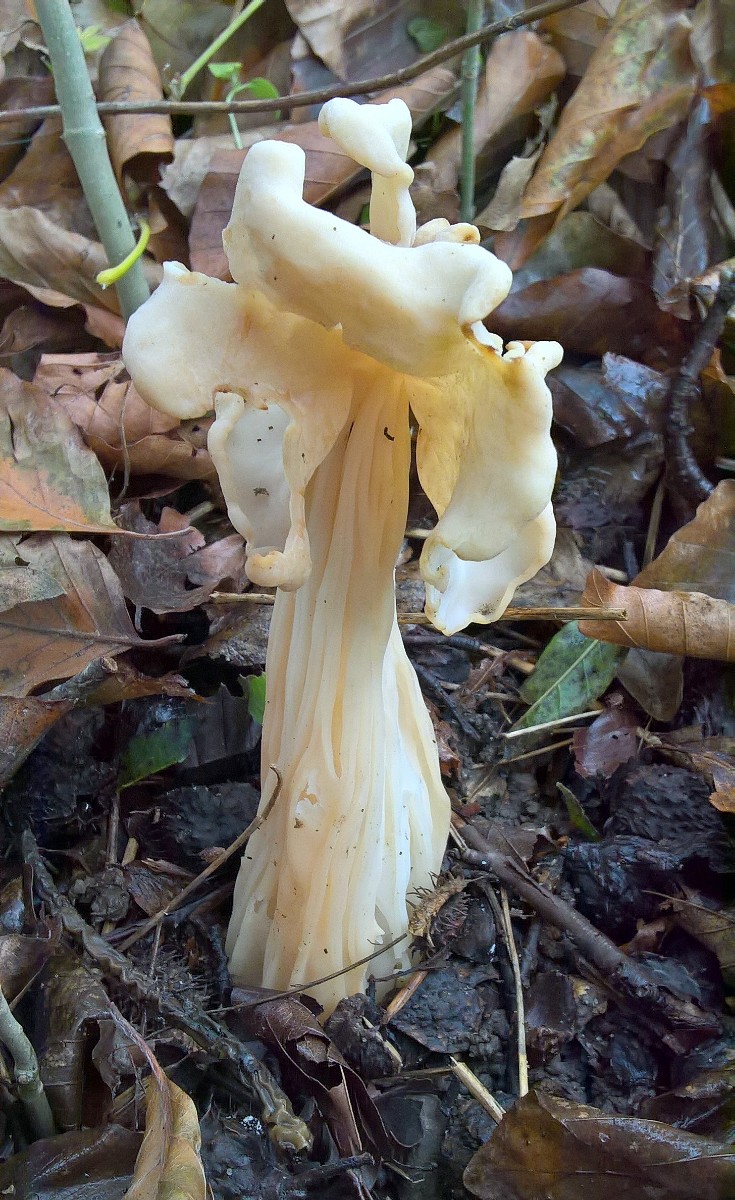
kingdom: Fungi
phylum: Ascomycota
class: Pezizomycetes
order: Pezizales
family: Helvellaceae
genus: Helvella
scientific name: Helvella crispa
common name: kruset foldhat
